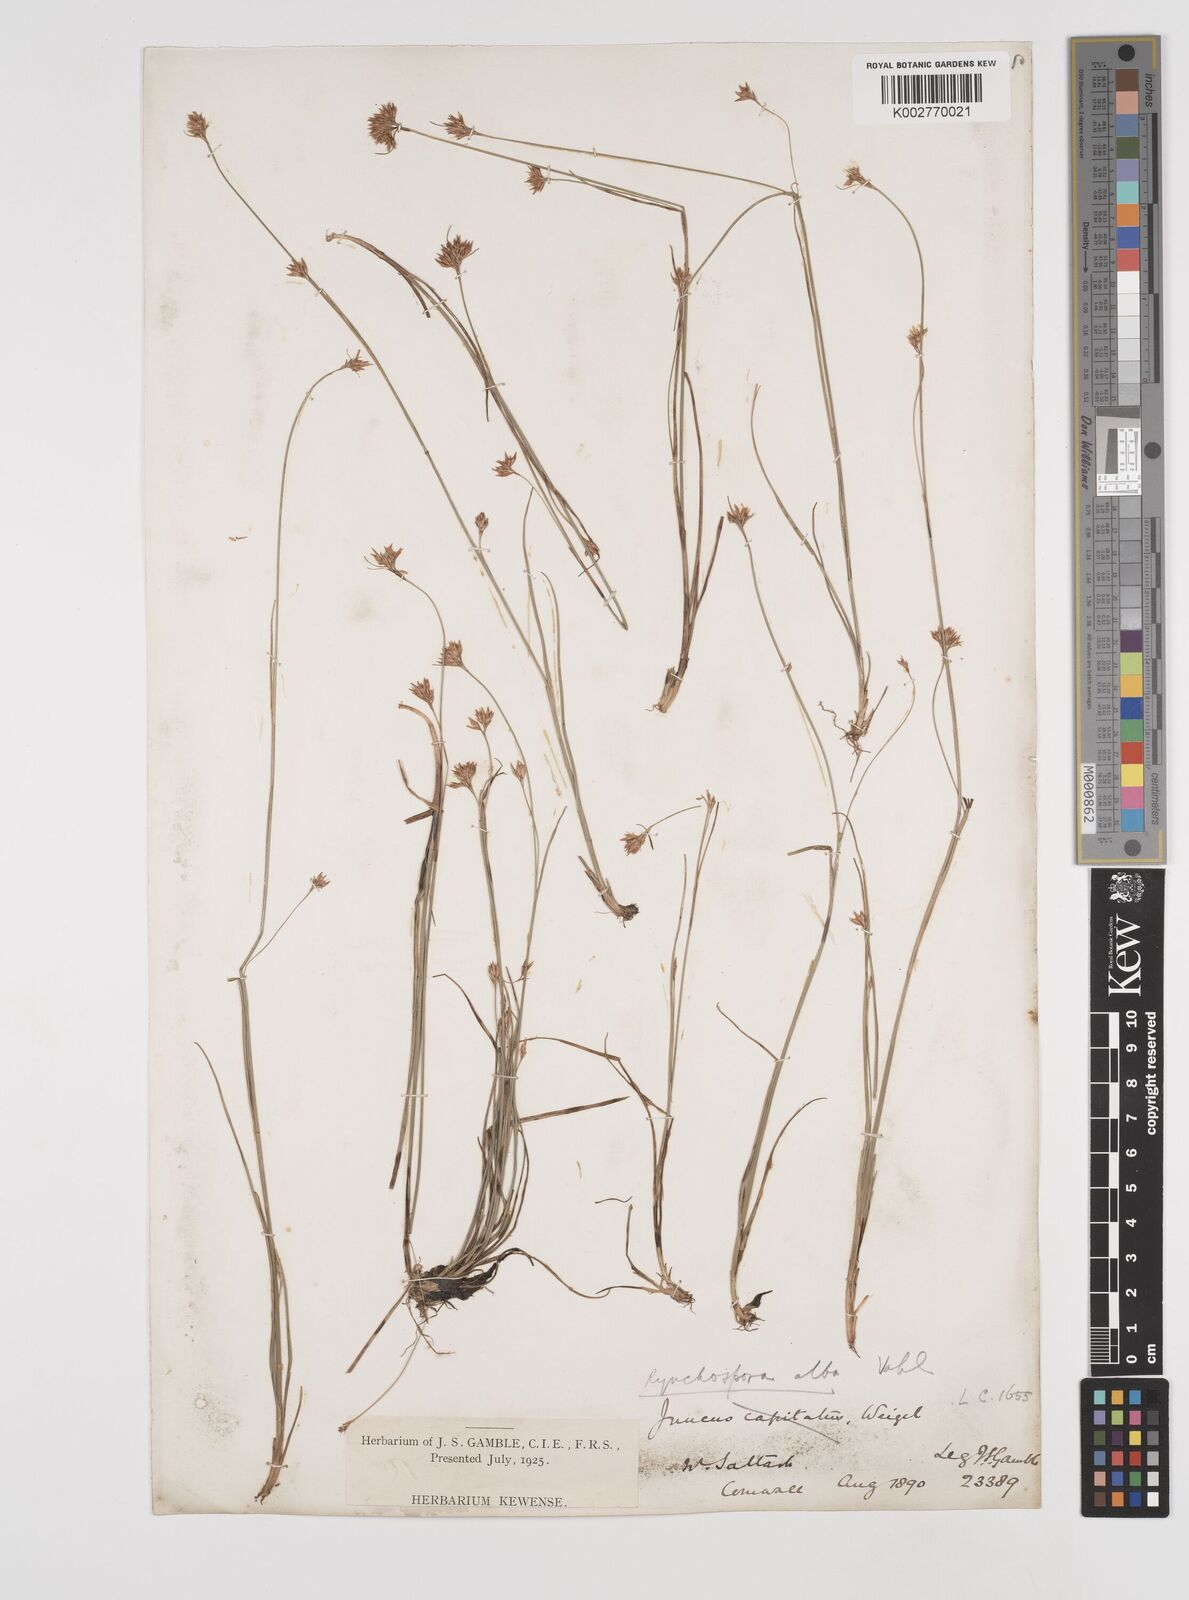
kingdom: Plantae
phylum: Tracheophyta
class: Liliopsida
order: Poales
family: Cyperaceae
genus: Rhynchospora
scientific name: Rhynchospora alba
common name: White beak-sedge
